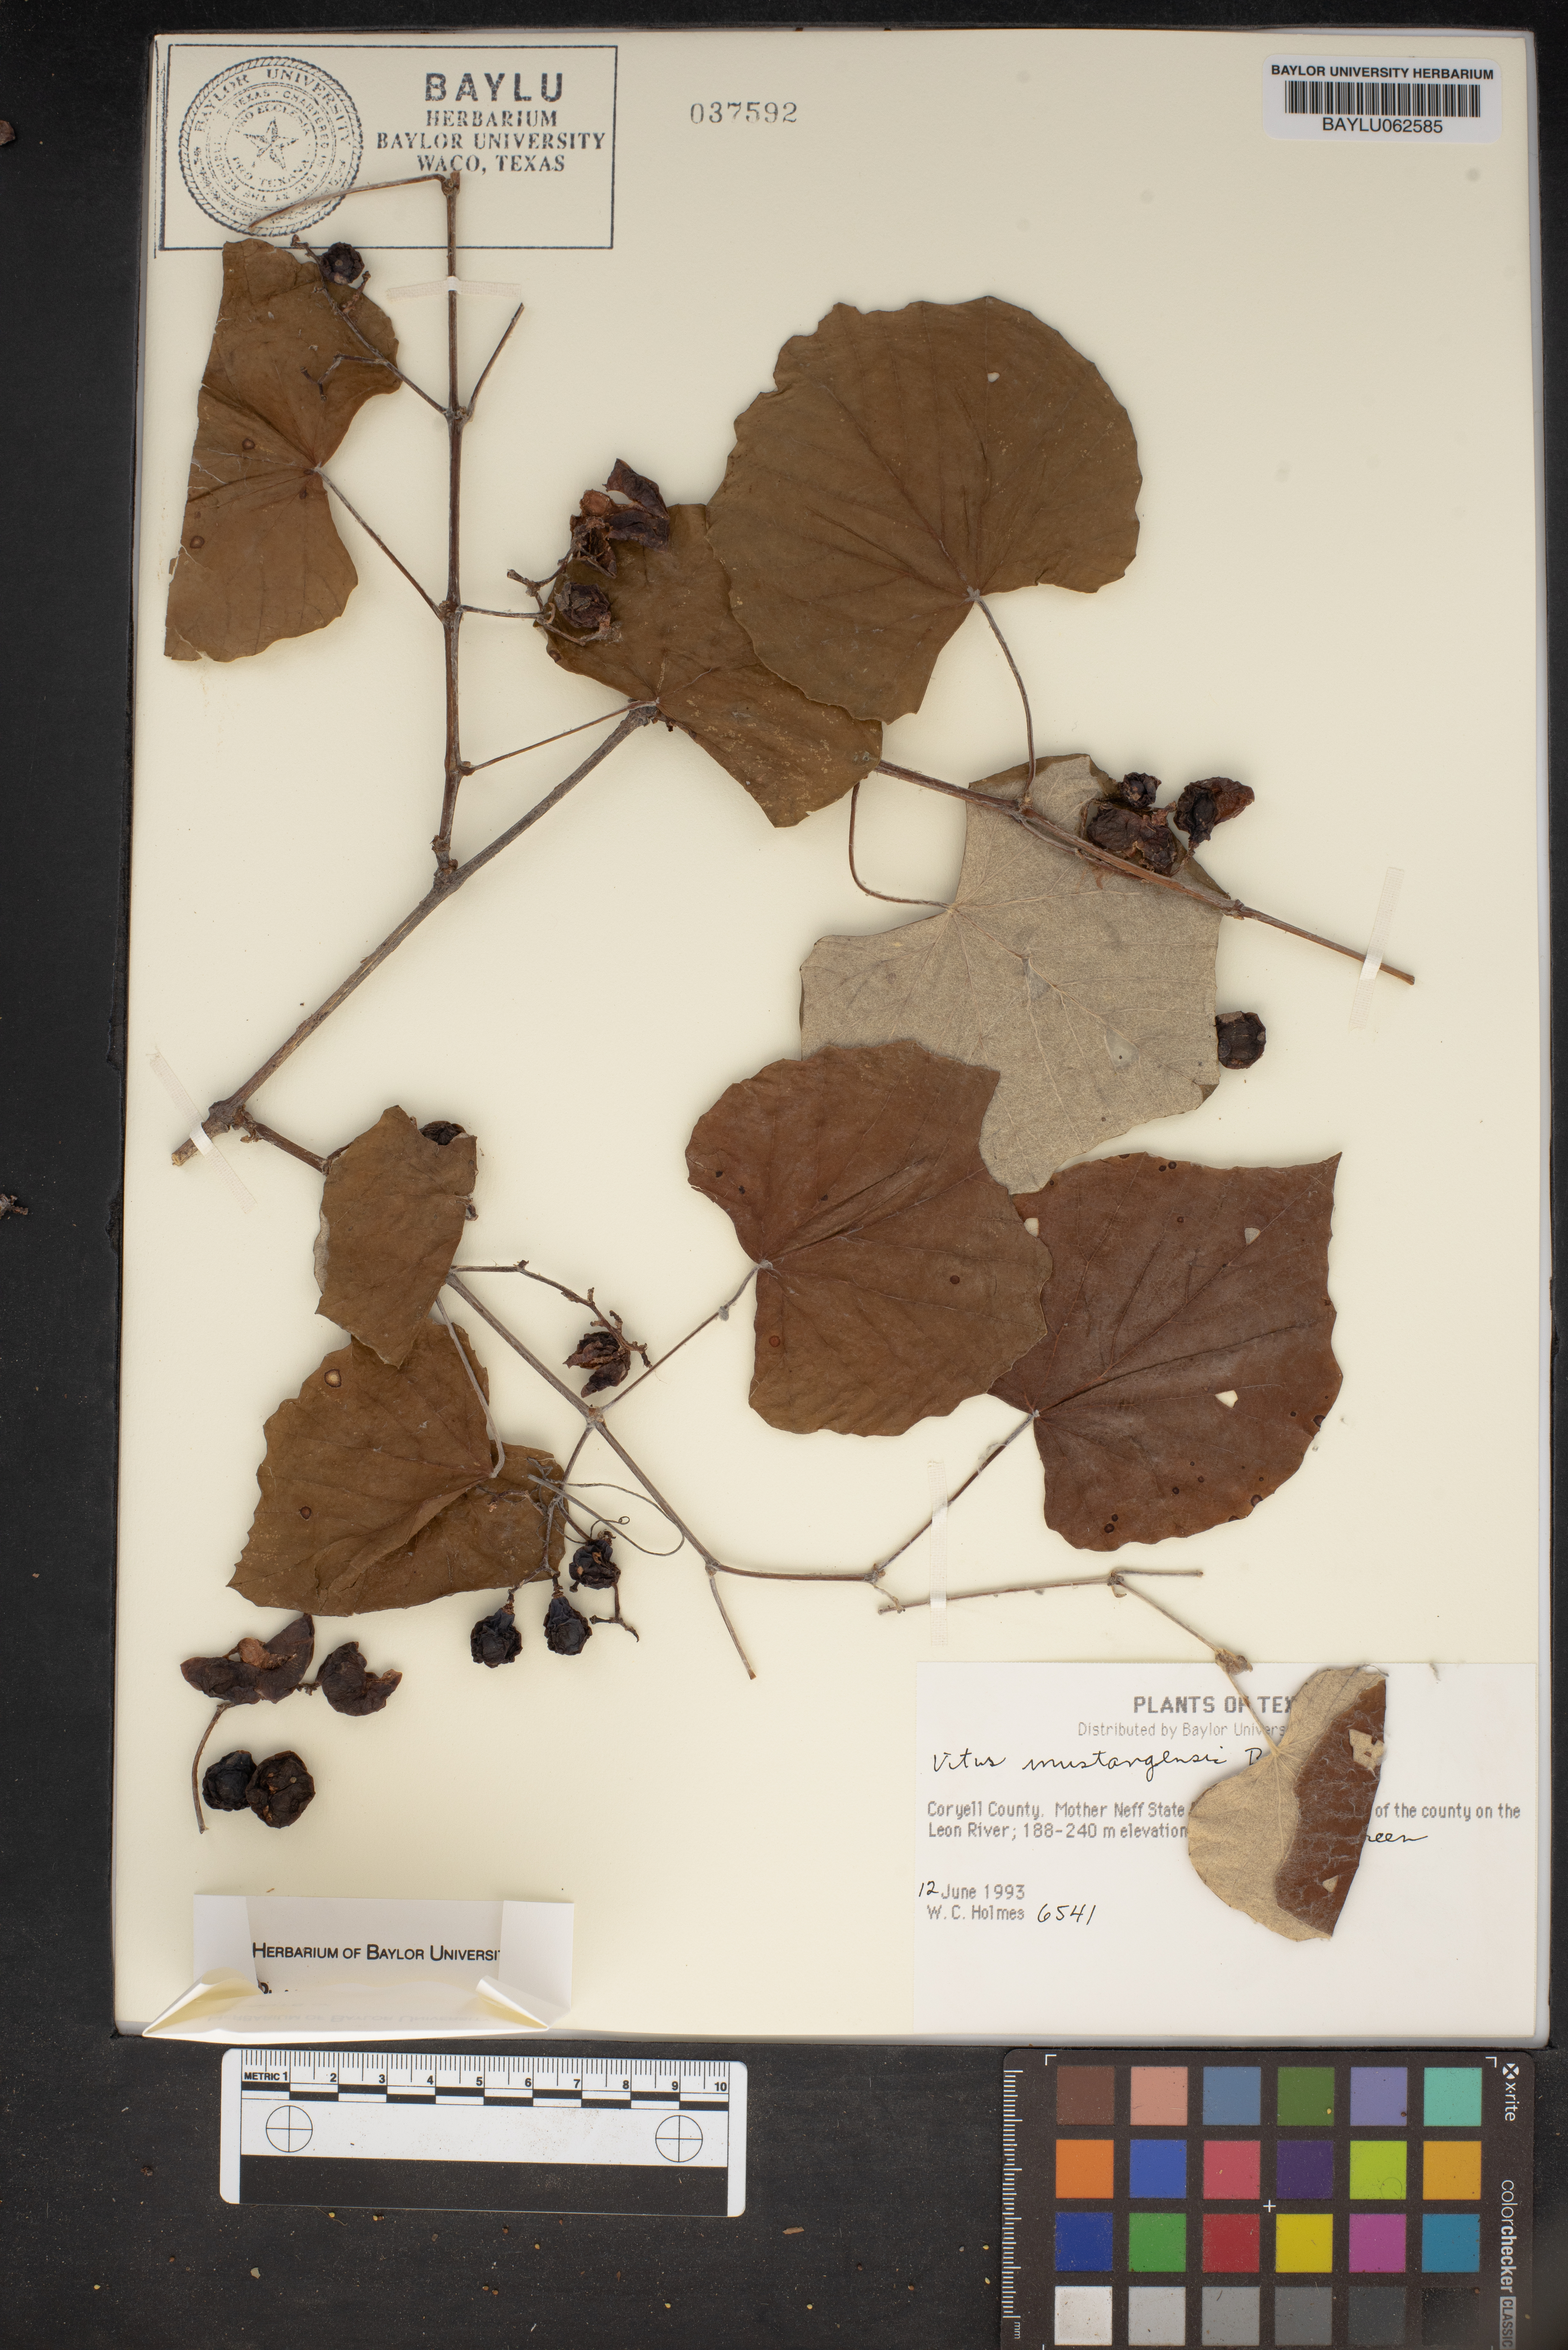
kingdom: Plantae
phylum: Tracheophyta
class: Magnoliopsida
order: Vitales
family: Vitaceae
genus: Vitis
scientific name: Vitis mustangensis
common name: Mustang grape
